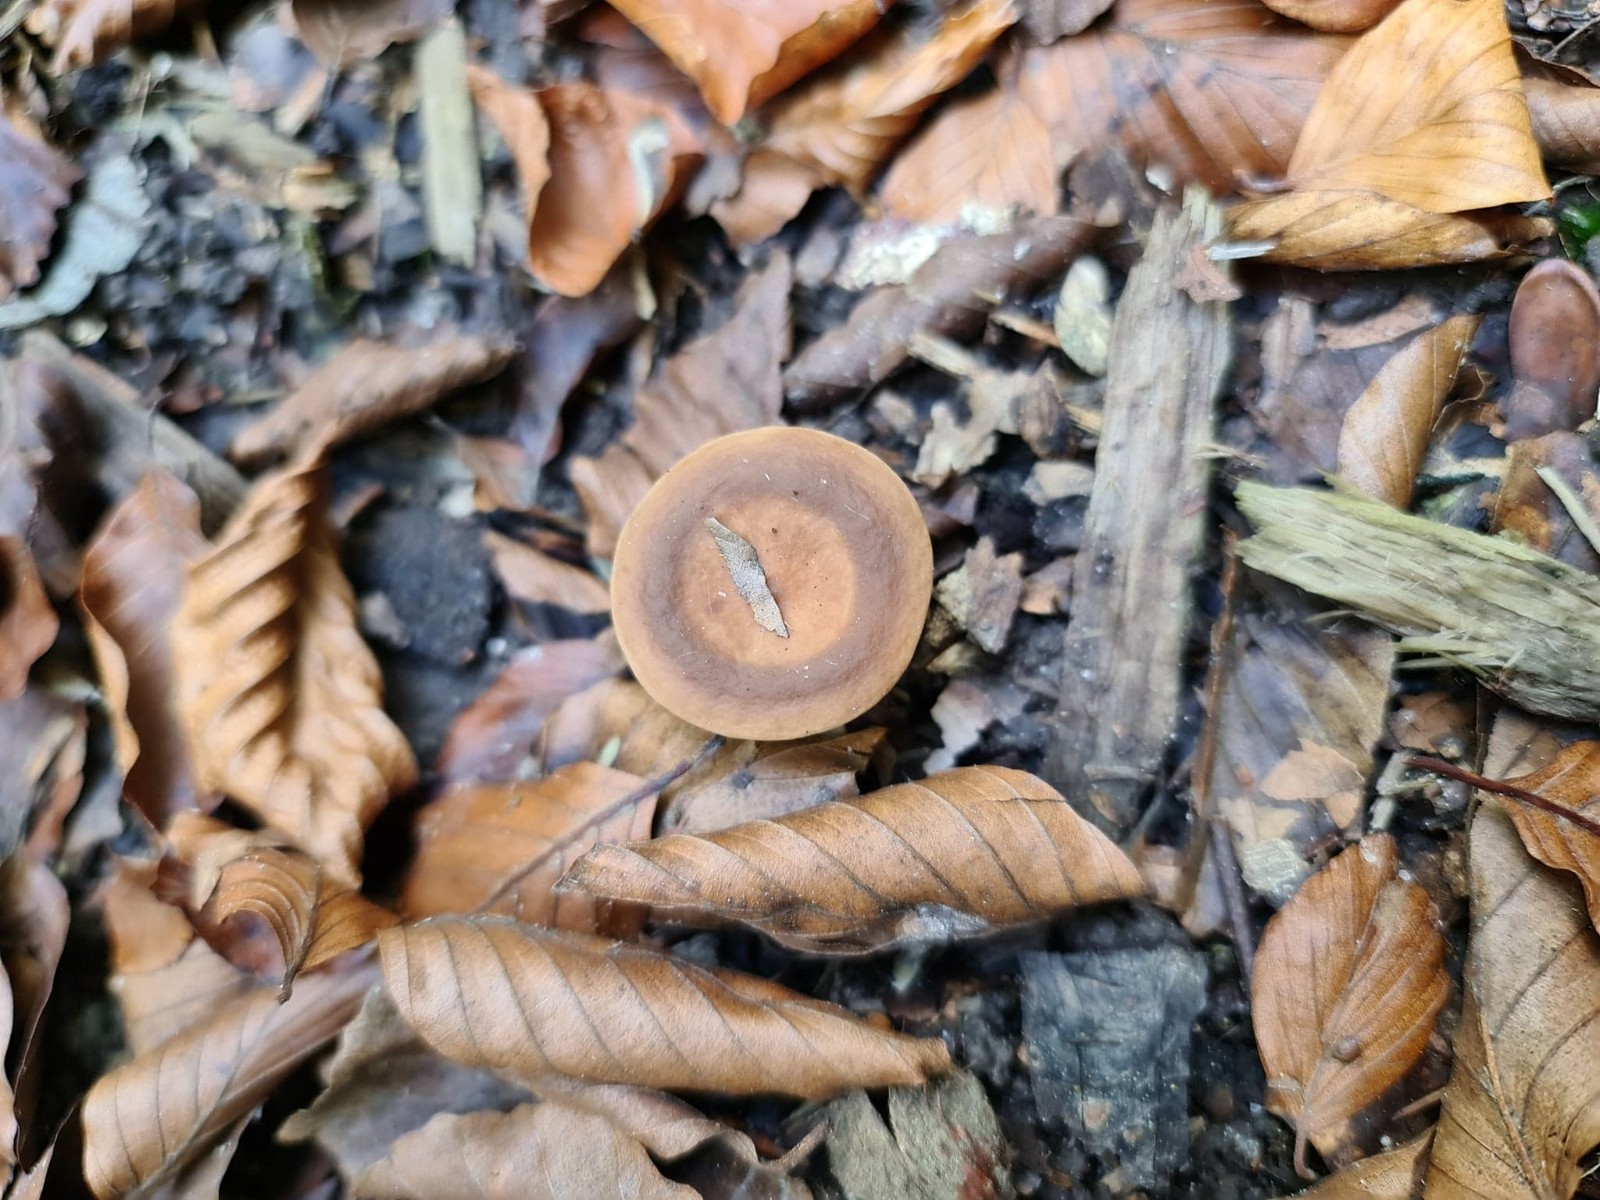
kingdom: Fungi
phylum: Basidiomycota
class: Agaricomycetes
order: Russulales
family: Russulaceae
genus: Lactarius
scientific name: Lactarius subdulcis
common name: sødlig mælkehat
